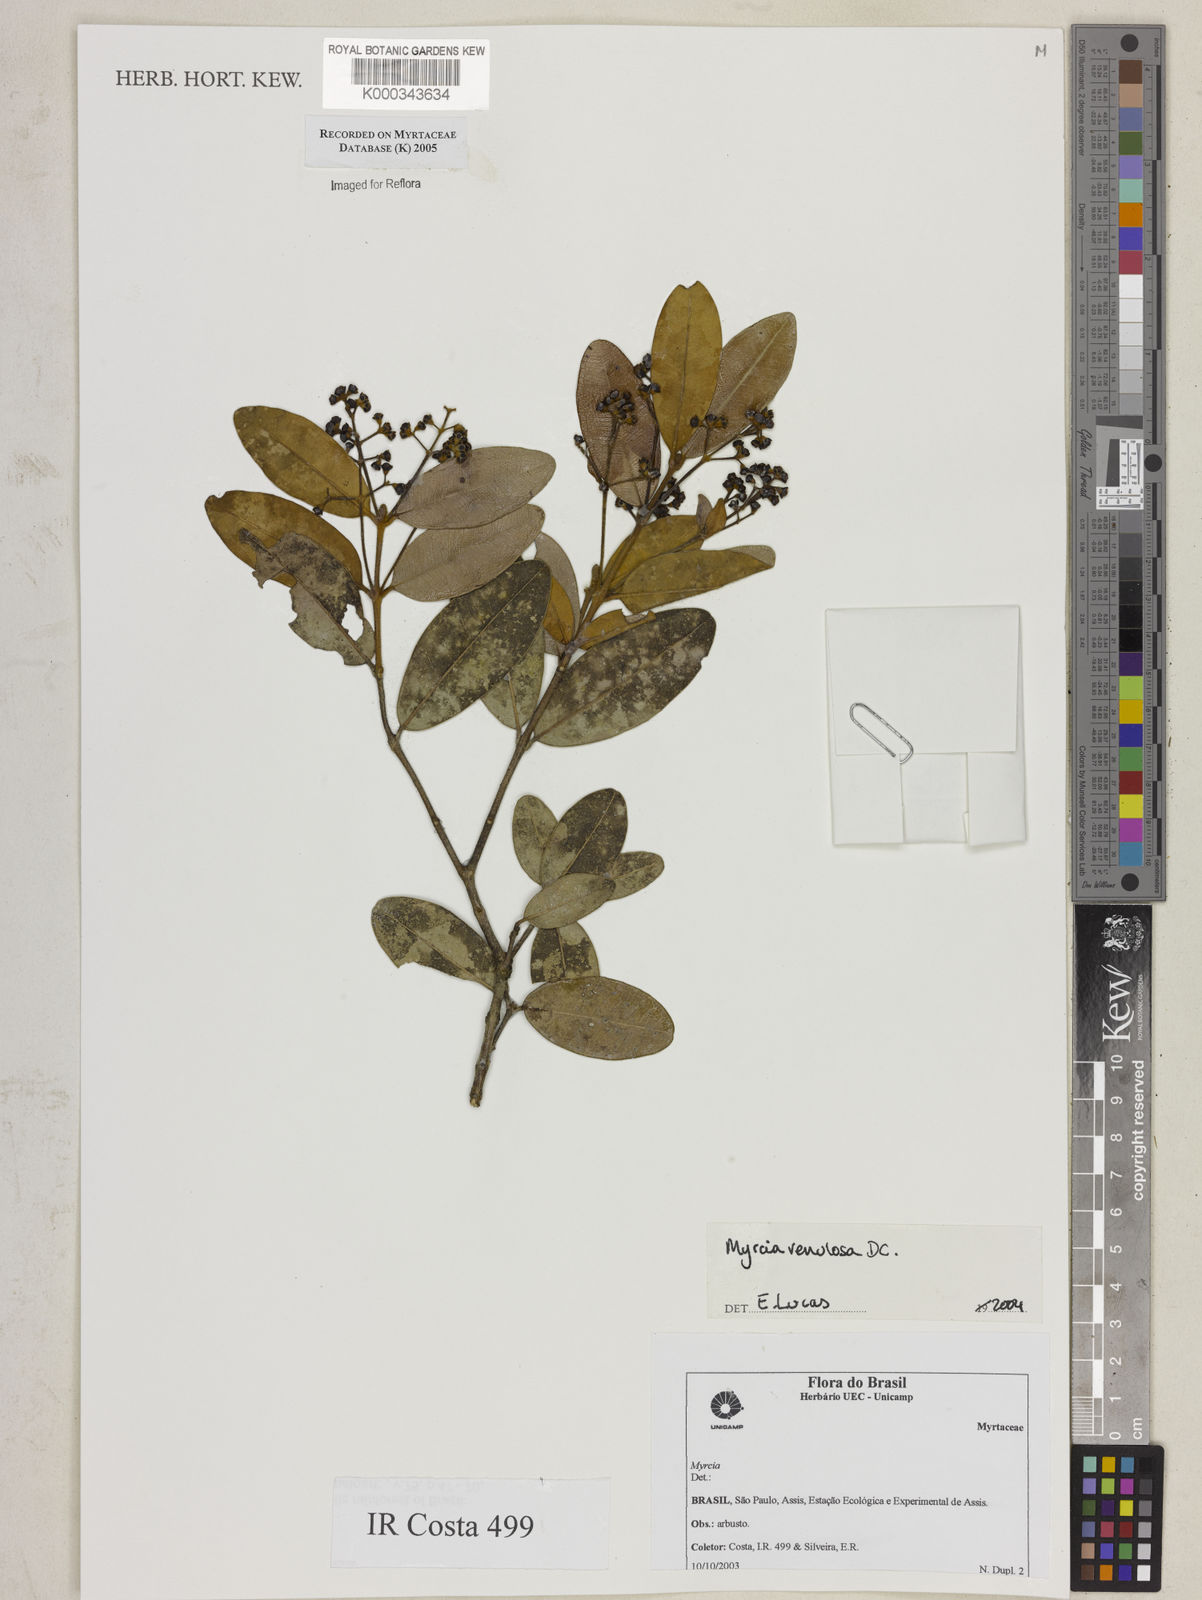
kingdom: Plantae
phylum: Tracheophyta
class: Magnoliopsida
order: Myrtales
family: Myrtaceae
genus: Myrcia
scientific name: Myrcia venulosa
